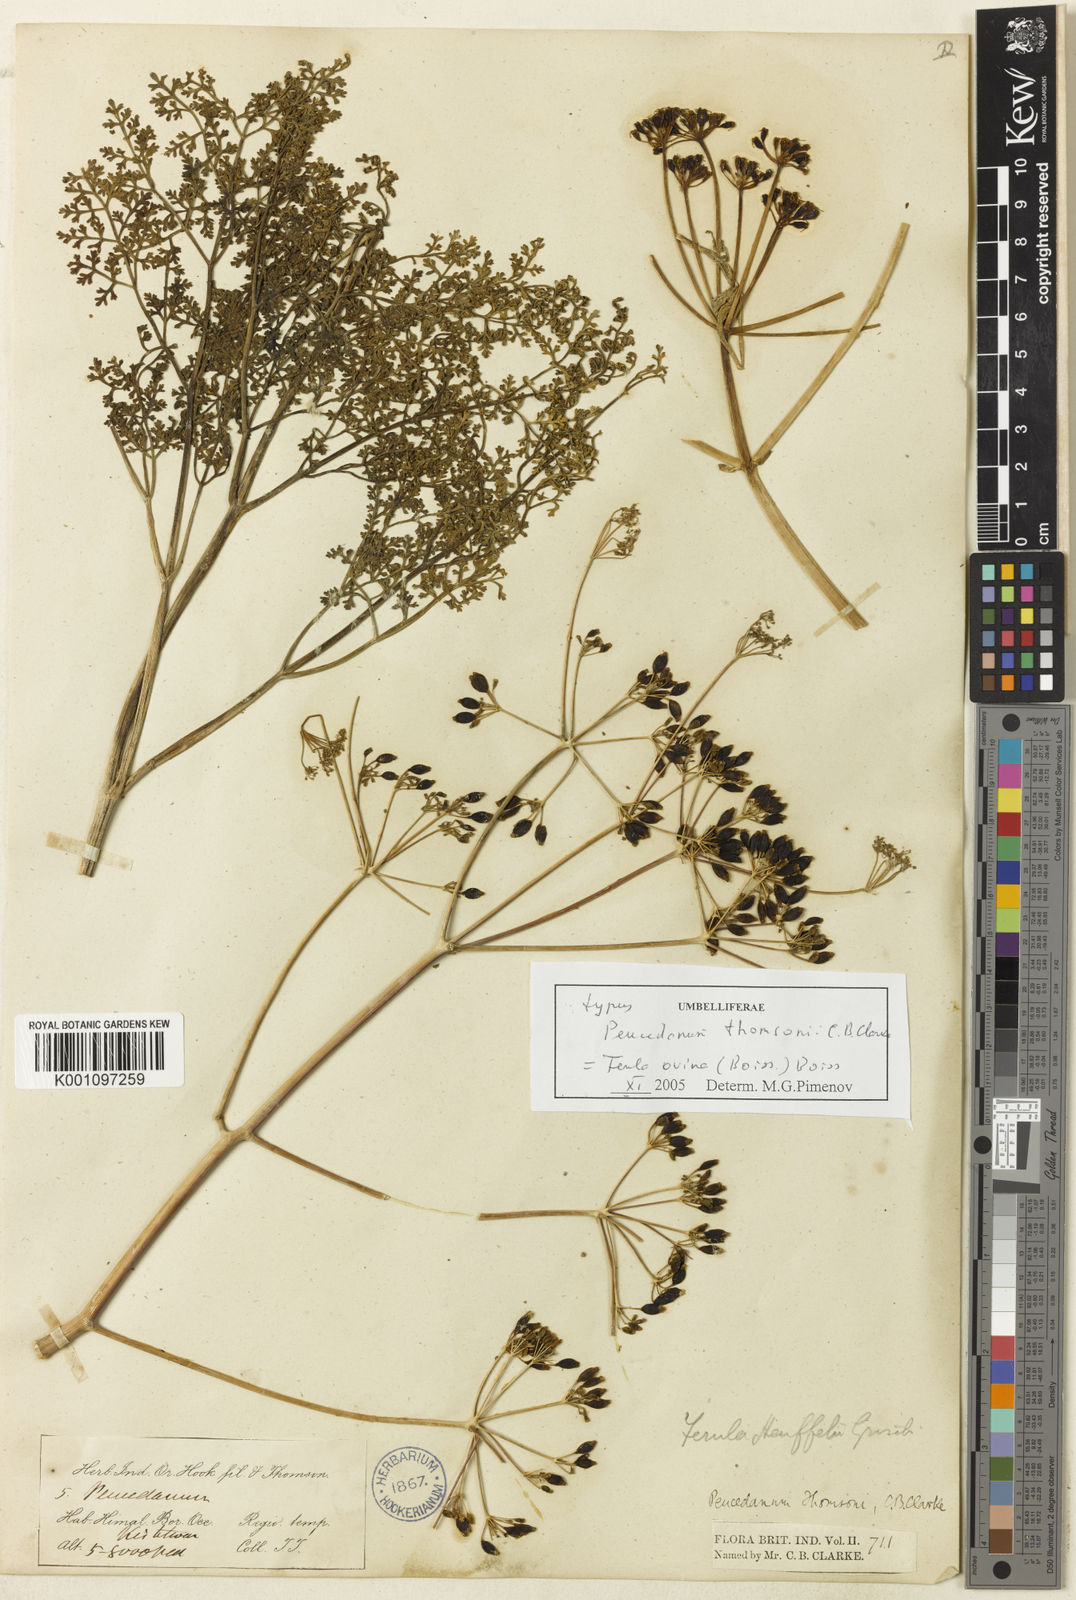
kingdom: Plantae
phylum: Tracheophyta
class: Magnoliopsida
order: Apiales
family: Apiaceae
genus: Ferula
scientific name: Ferula
